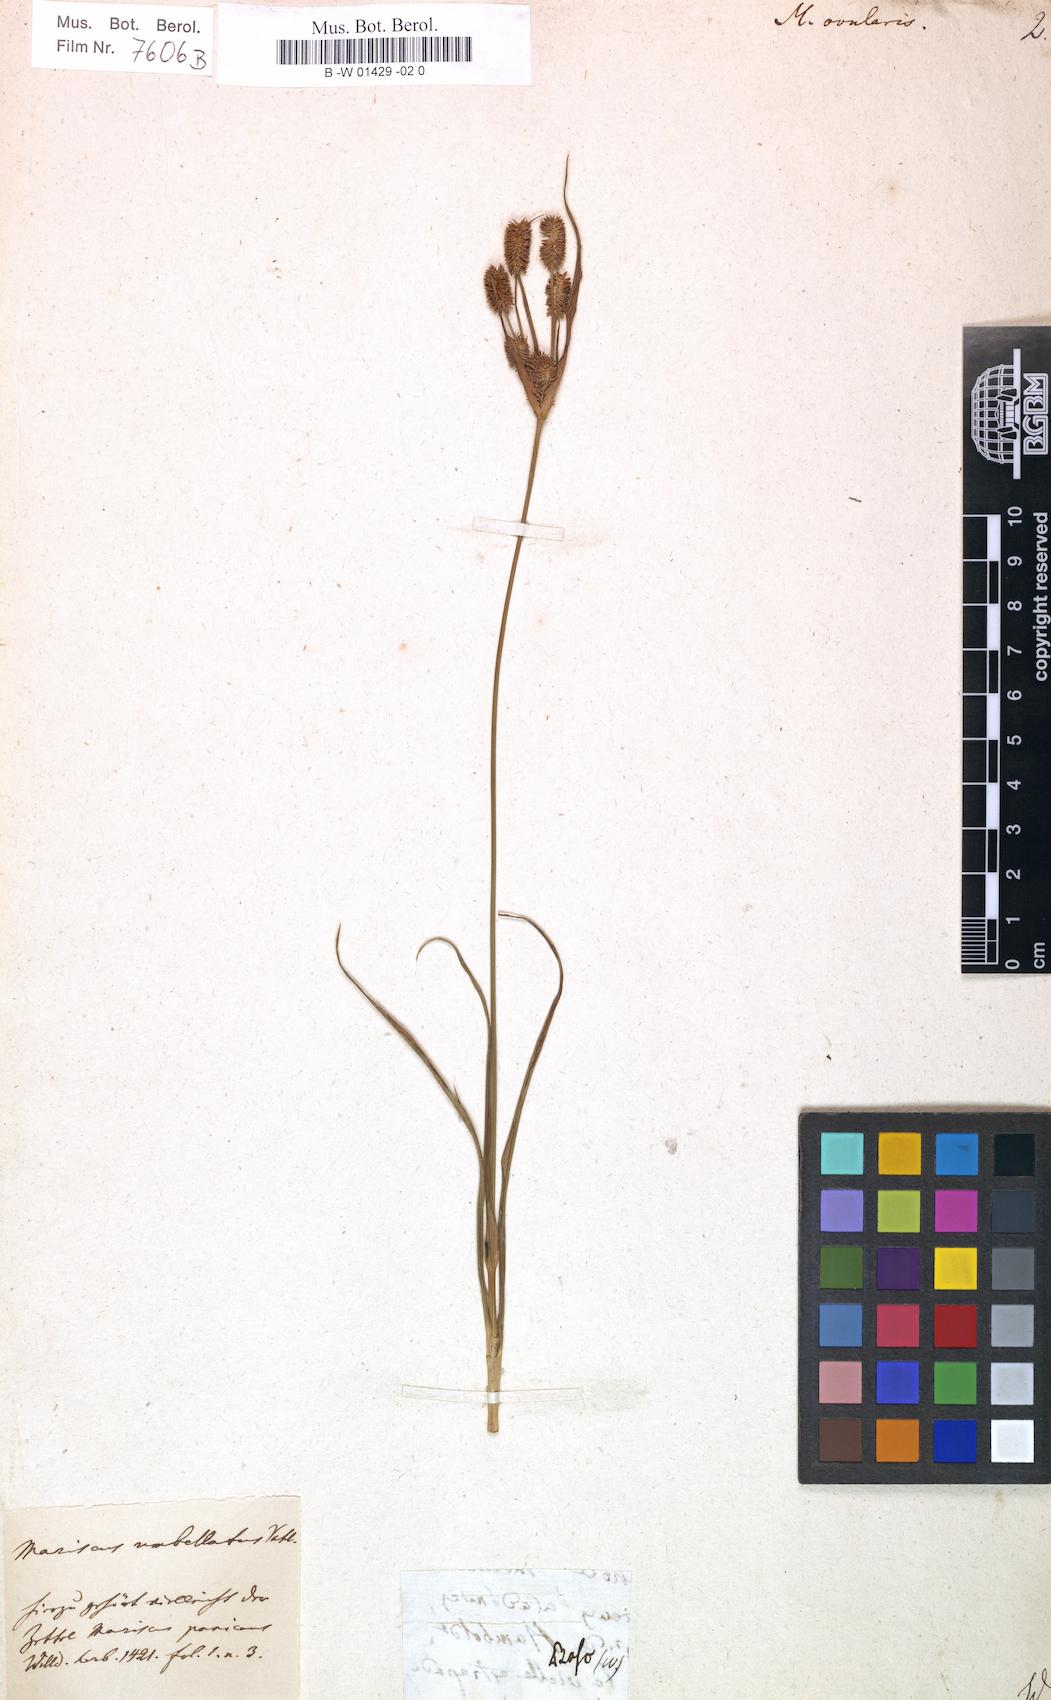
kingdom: Plantae
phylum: Tracheophyta
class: Liliopsida
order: Poales
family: Cyperaceae
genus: Cyperus
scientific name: Cyperus echinatus
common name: Teasel sedge
